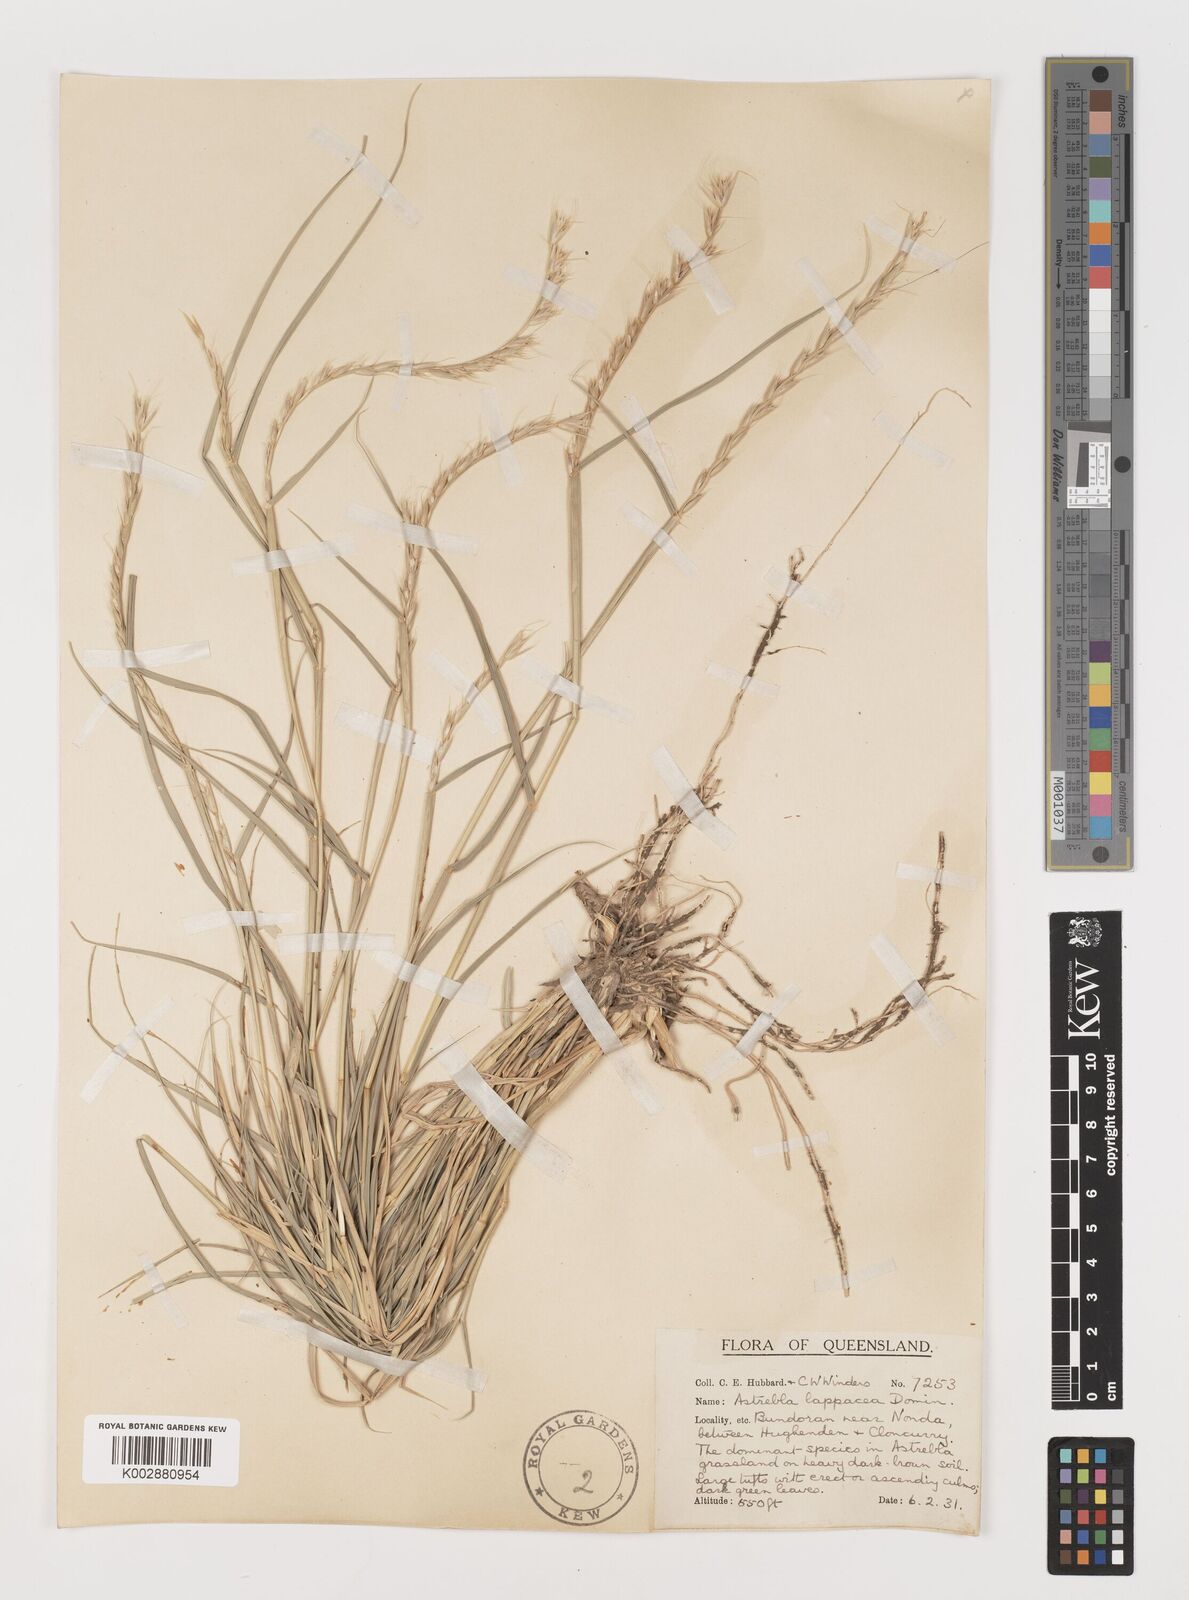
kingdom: Plantae
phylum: Tracheophyta
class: Liliopsida
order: Poales
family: Poaceae
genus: Astrebla
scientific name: Astrebla lappacea
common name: Curly mitchell grass
